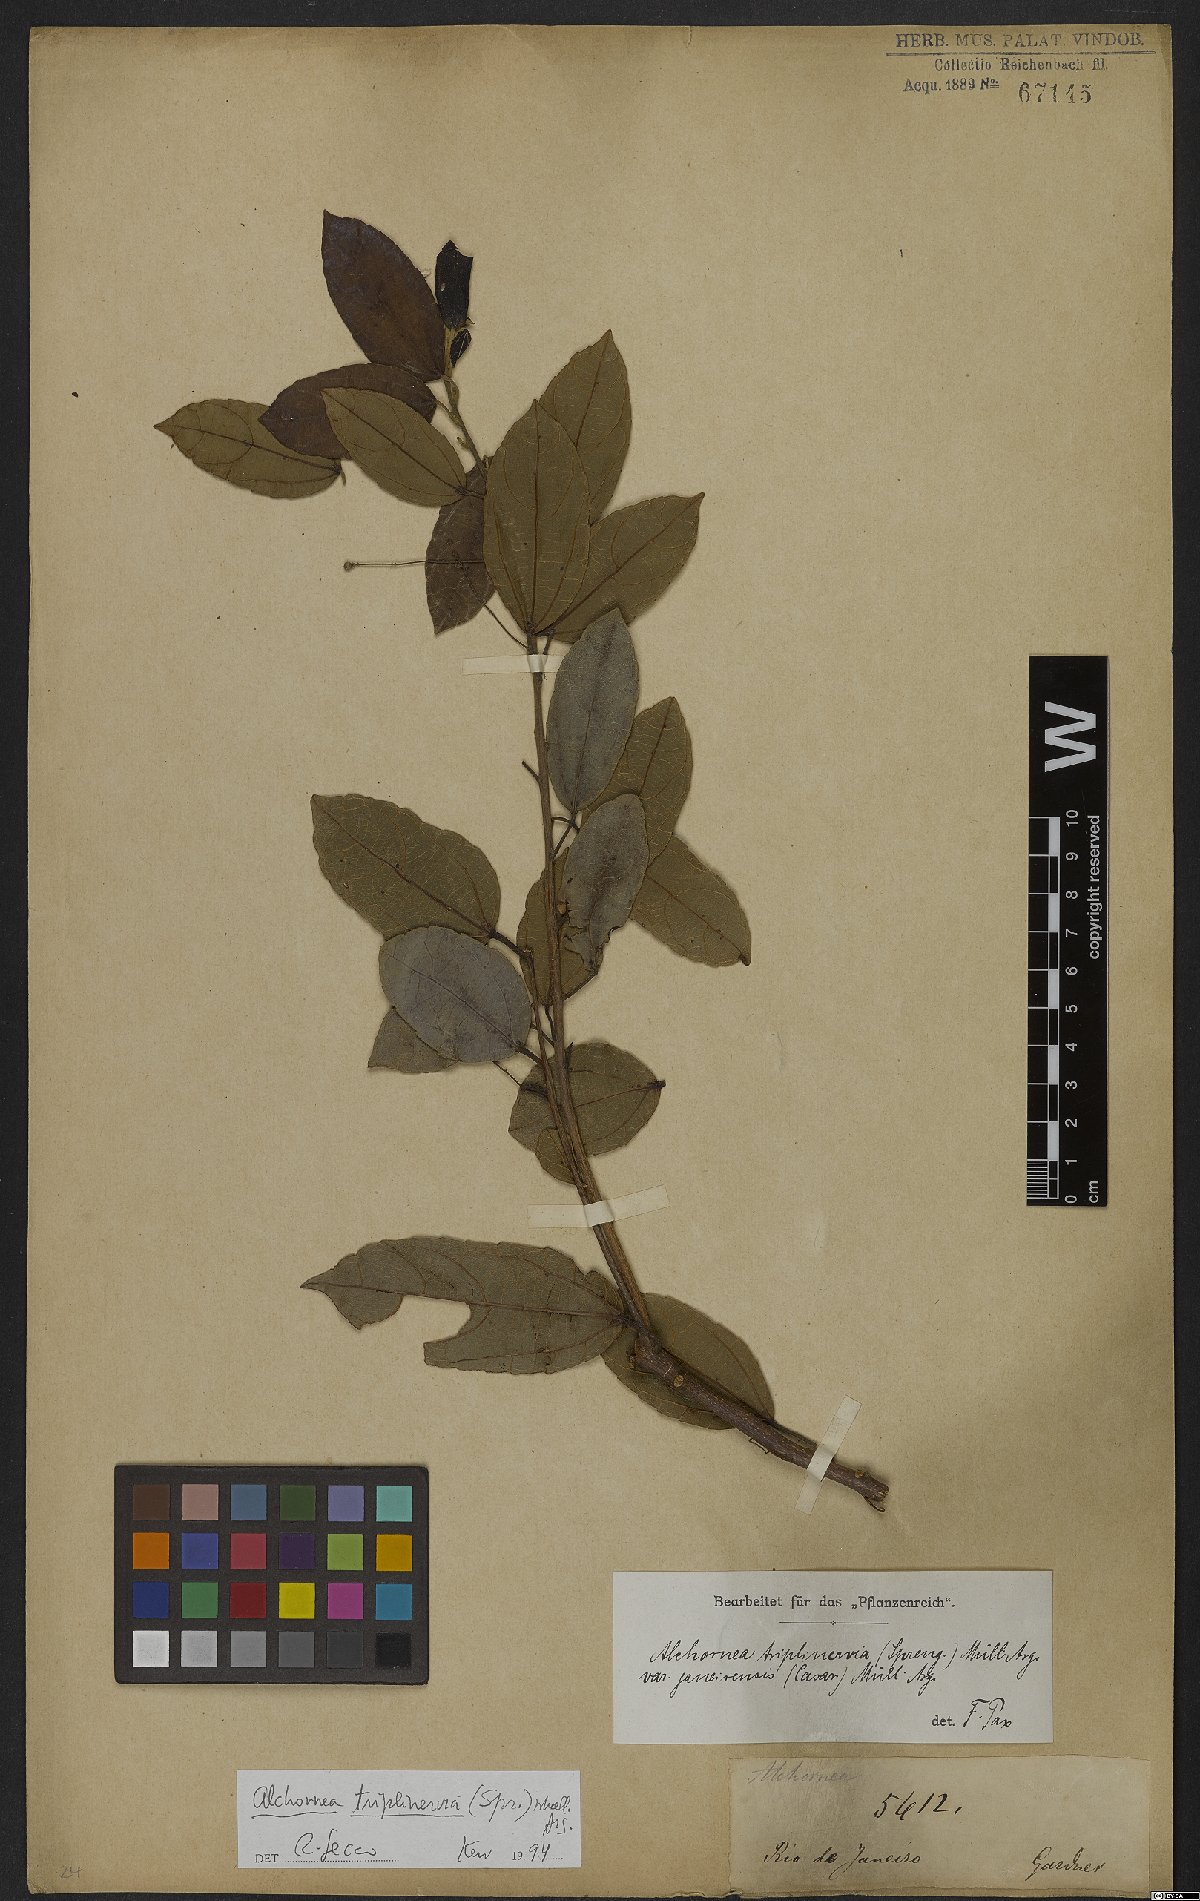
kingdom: Plantae
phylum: Tracheophyta
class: Magnoliopsida
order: Malpighiales
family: Euphorbiaceae
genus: Alchornea
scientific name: Alchornea triplinervia
